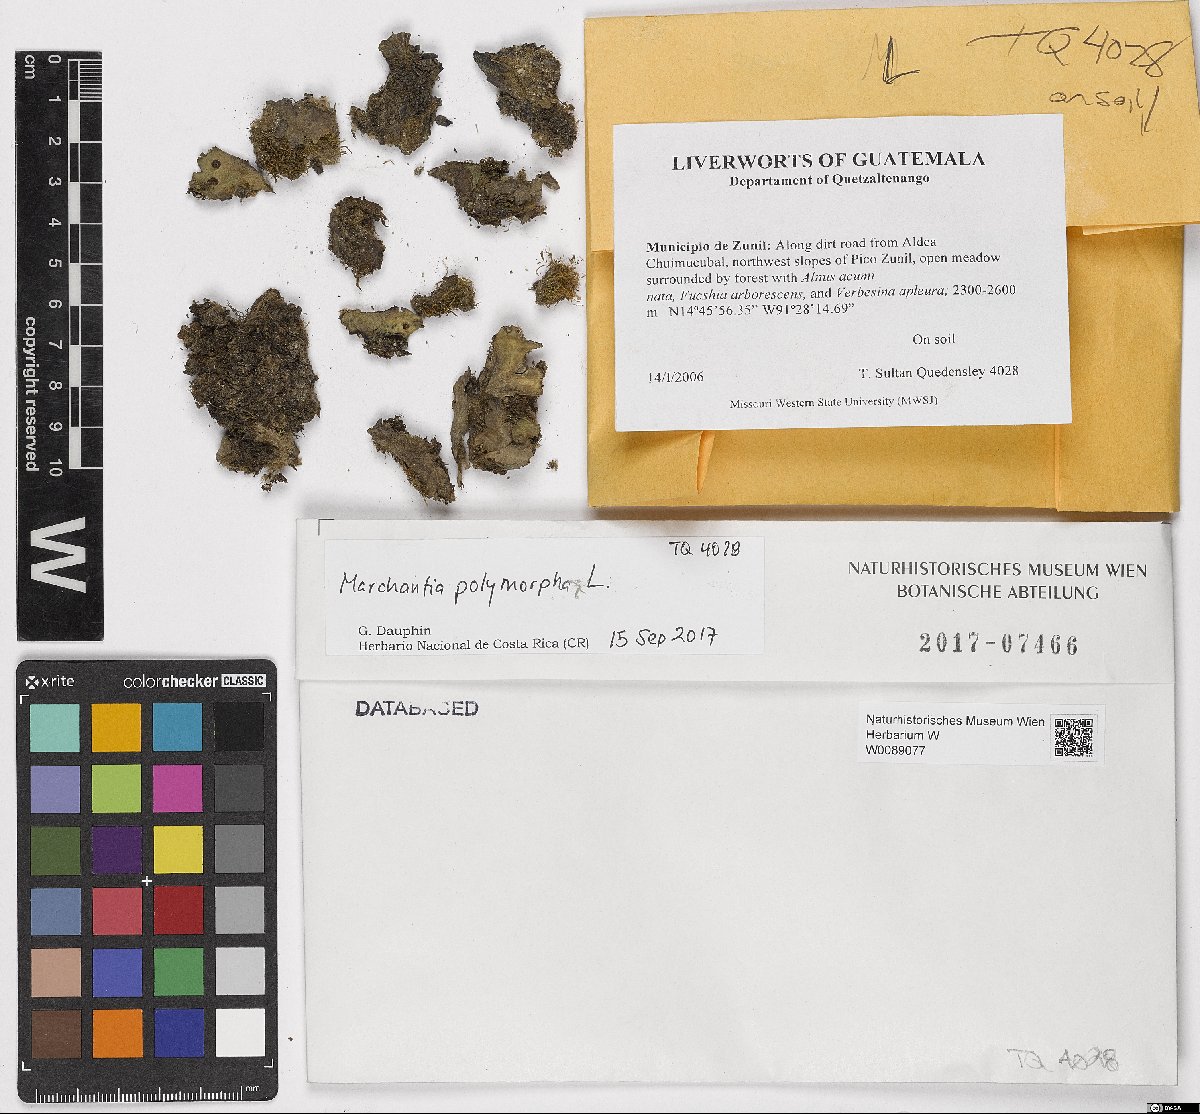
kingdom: Plantae
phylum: Marchantiophyta
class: Marchantiopsida
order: Marchantiales
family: Marchantiaceae
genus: Marchantia
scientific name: Marchantia polymorpha
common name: Common liverwort
